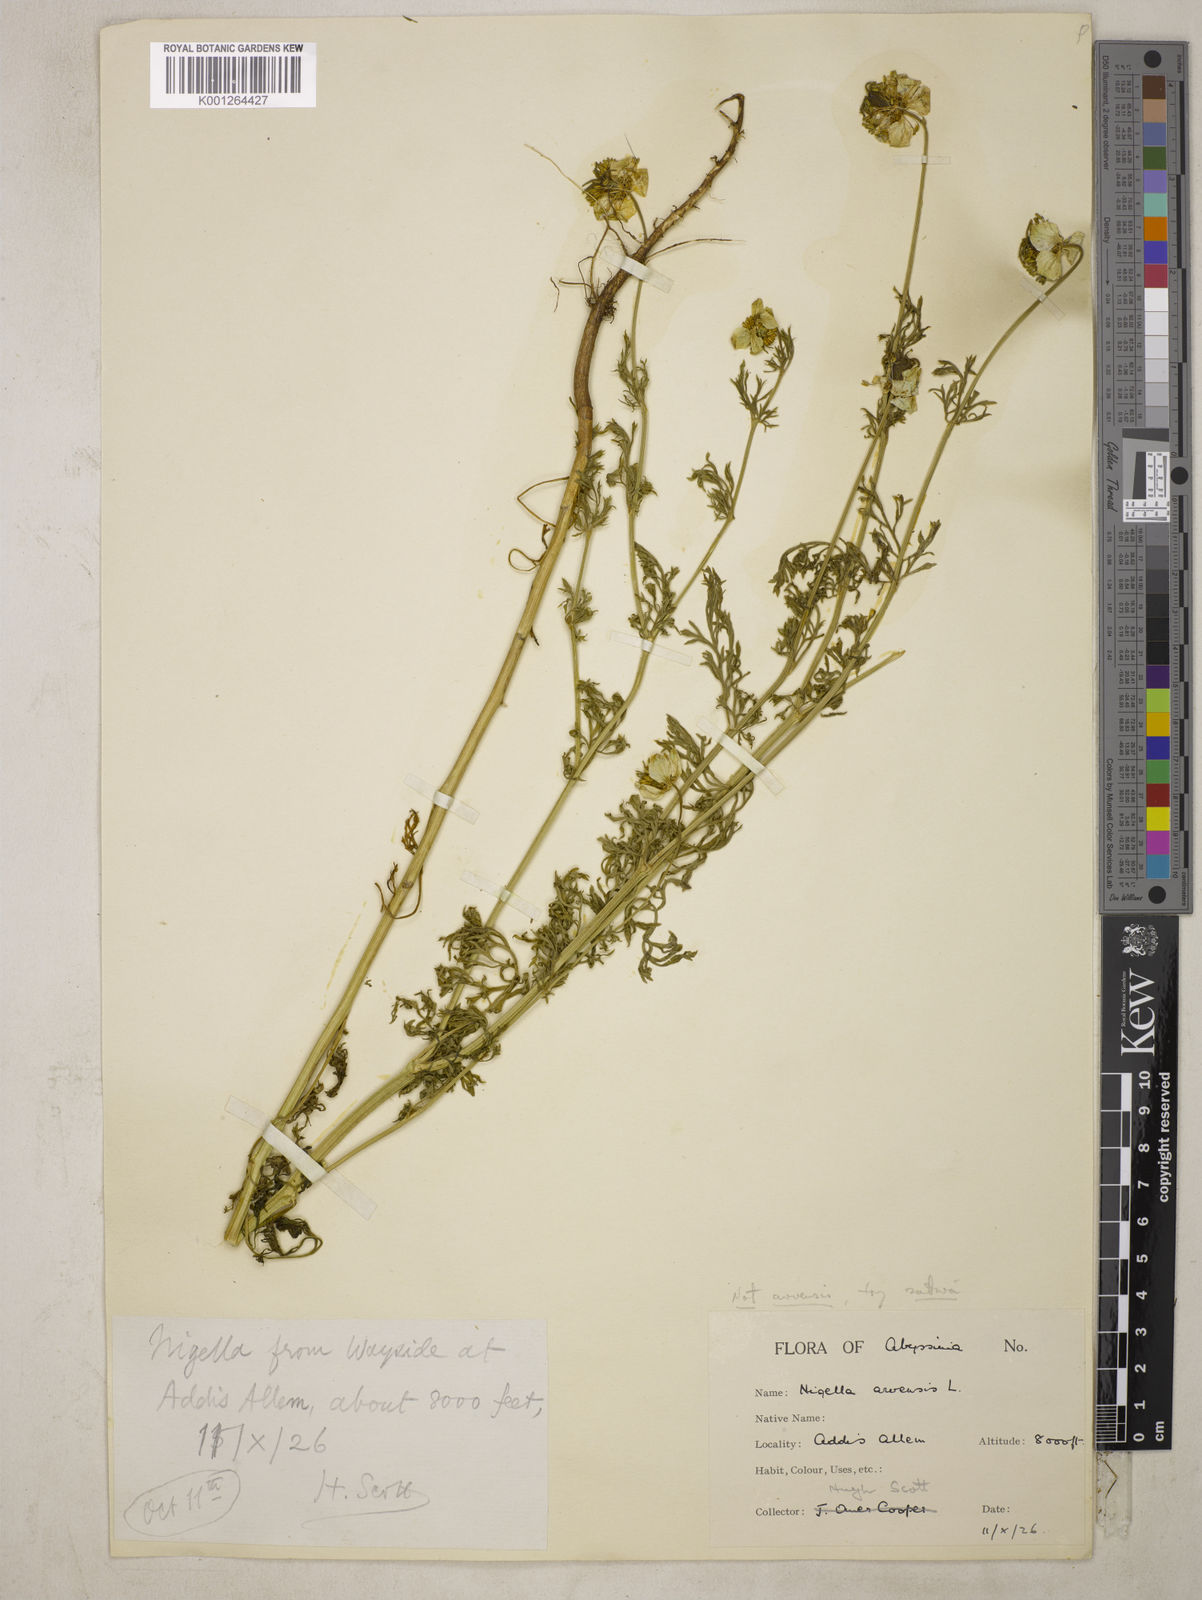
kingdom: Plantae
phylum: Tracheophyta
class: Magnoliopsida
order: Ranunculales
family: Ranunculaceae
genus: Nigella
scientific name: Nigella sativa
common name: Black-cumin
